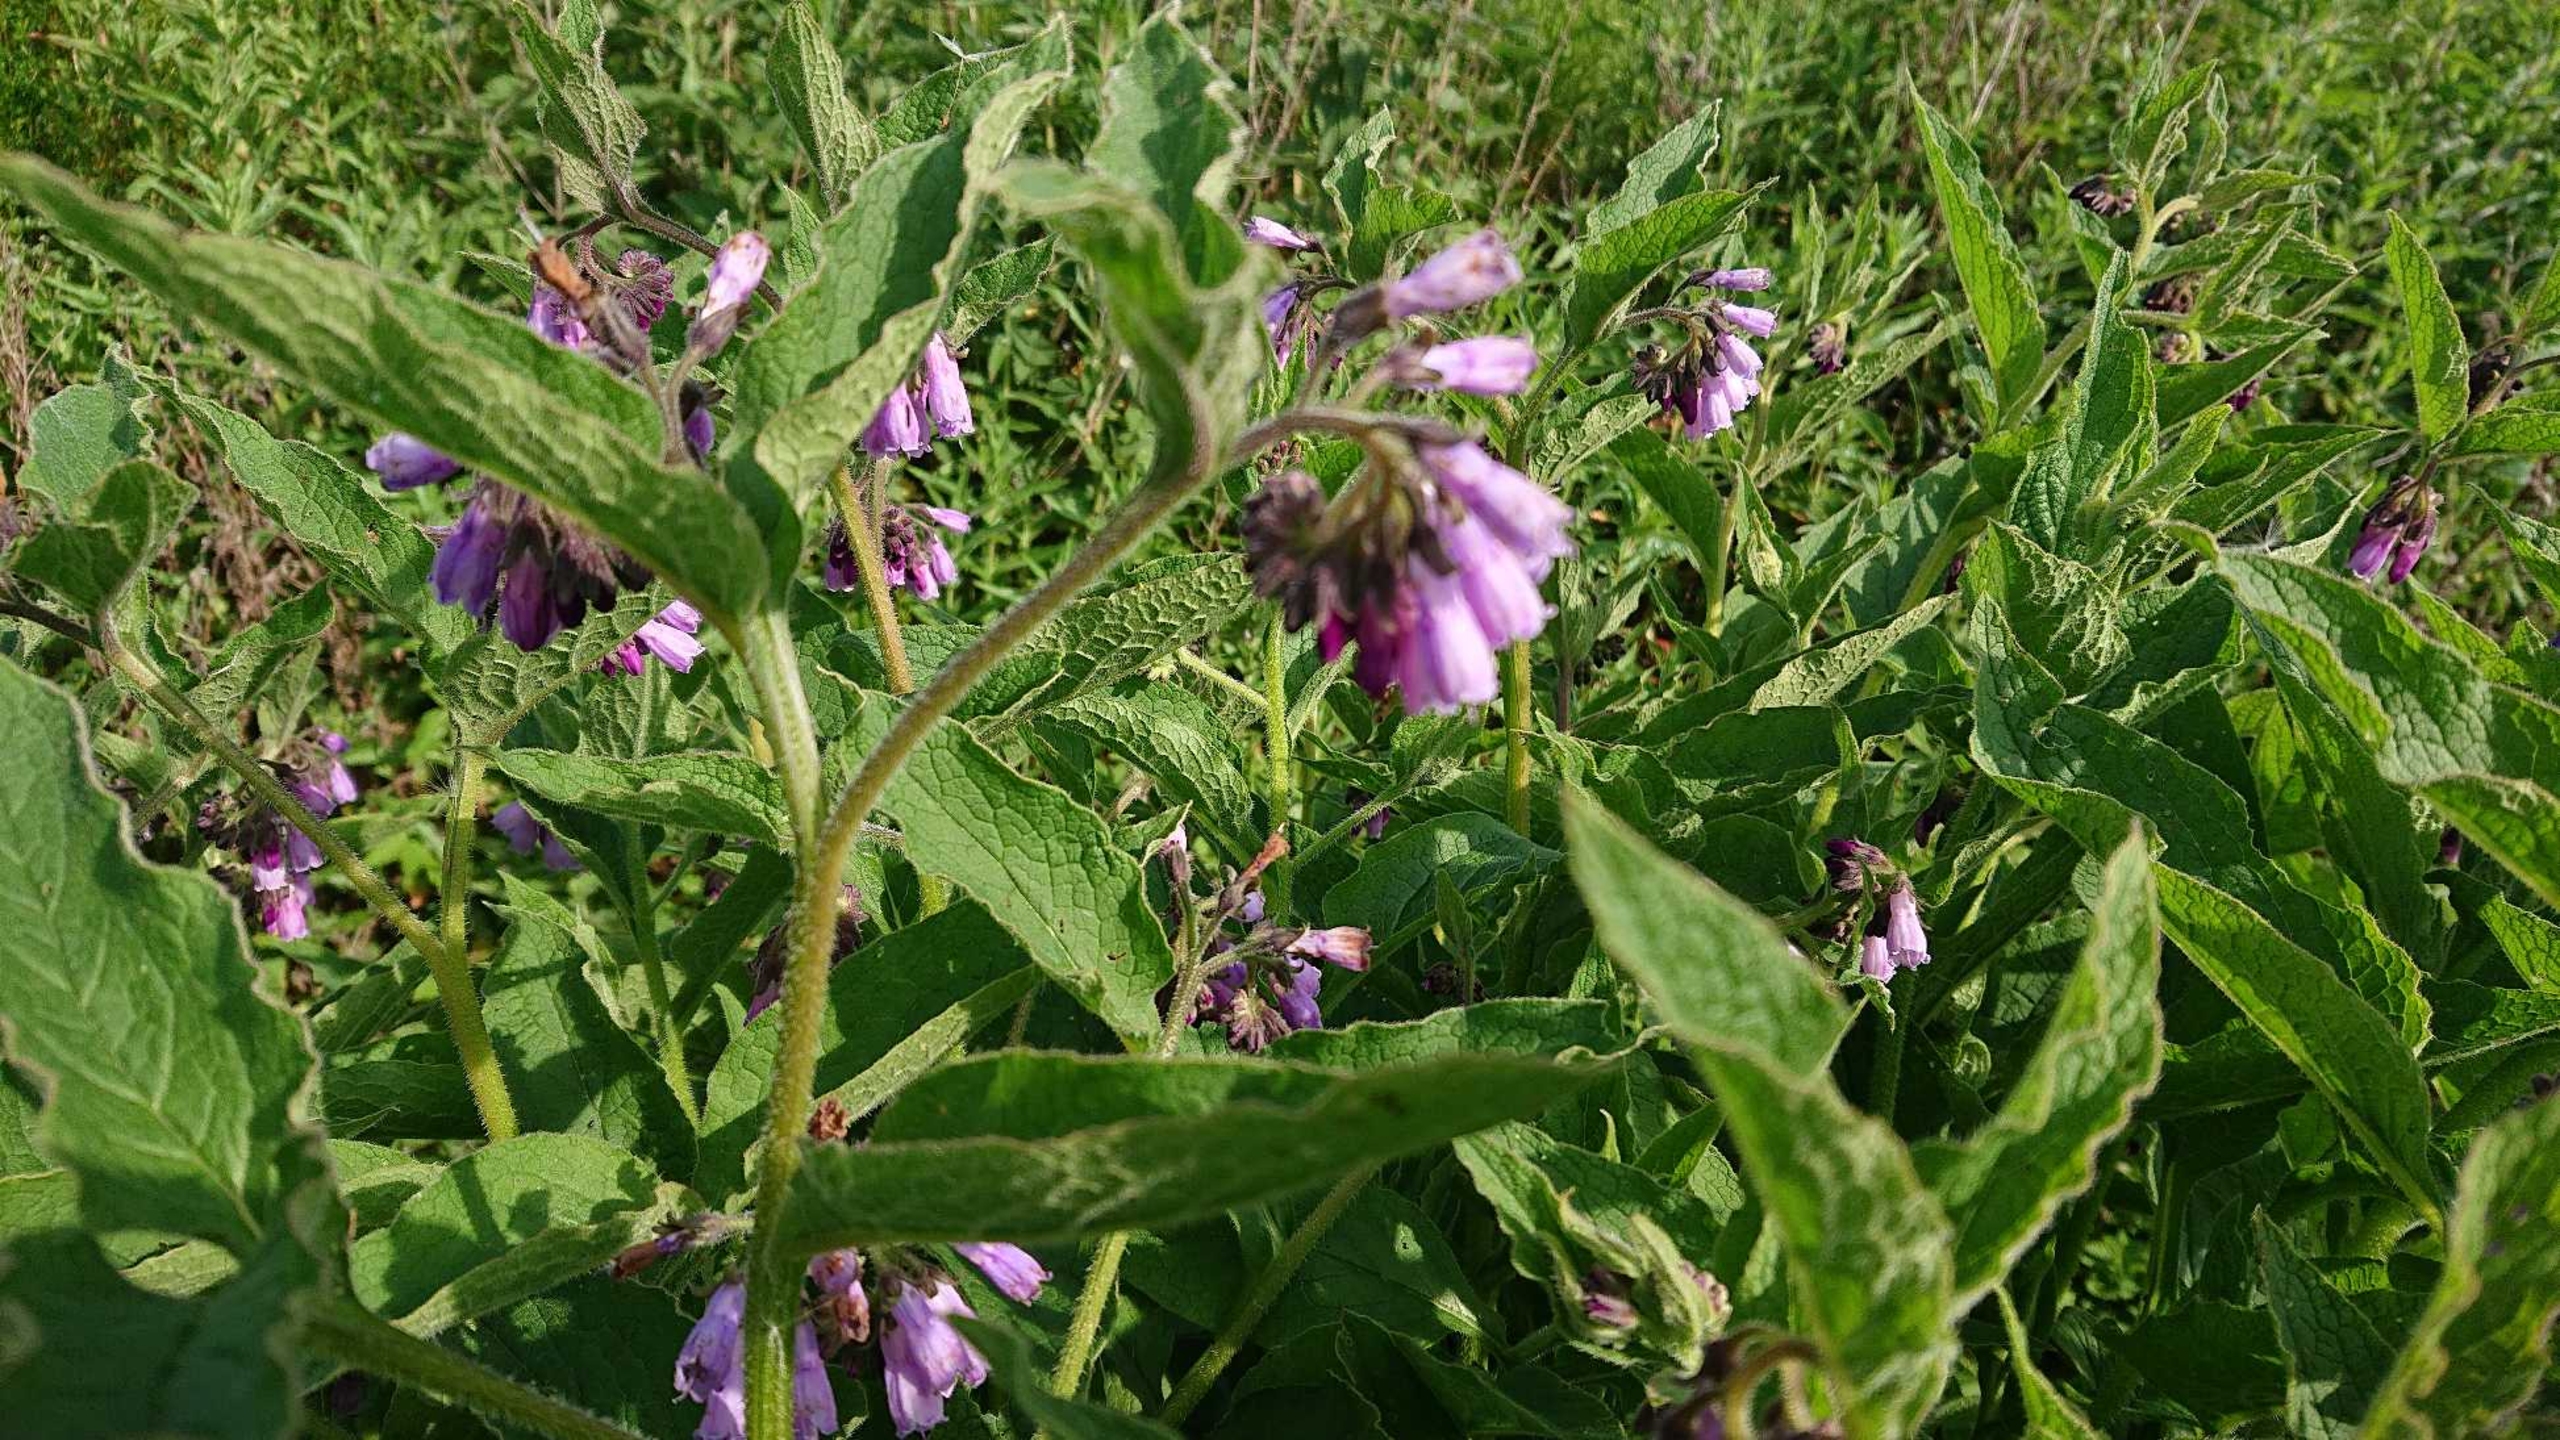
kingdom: Plantae
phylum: Tracheophyta
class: Magnoliopsida
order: Boraginales
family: Boraginaceae
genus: Symphytum
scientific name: Symphytum uplandicum
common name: Foder-kulsukker
